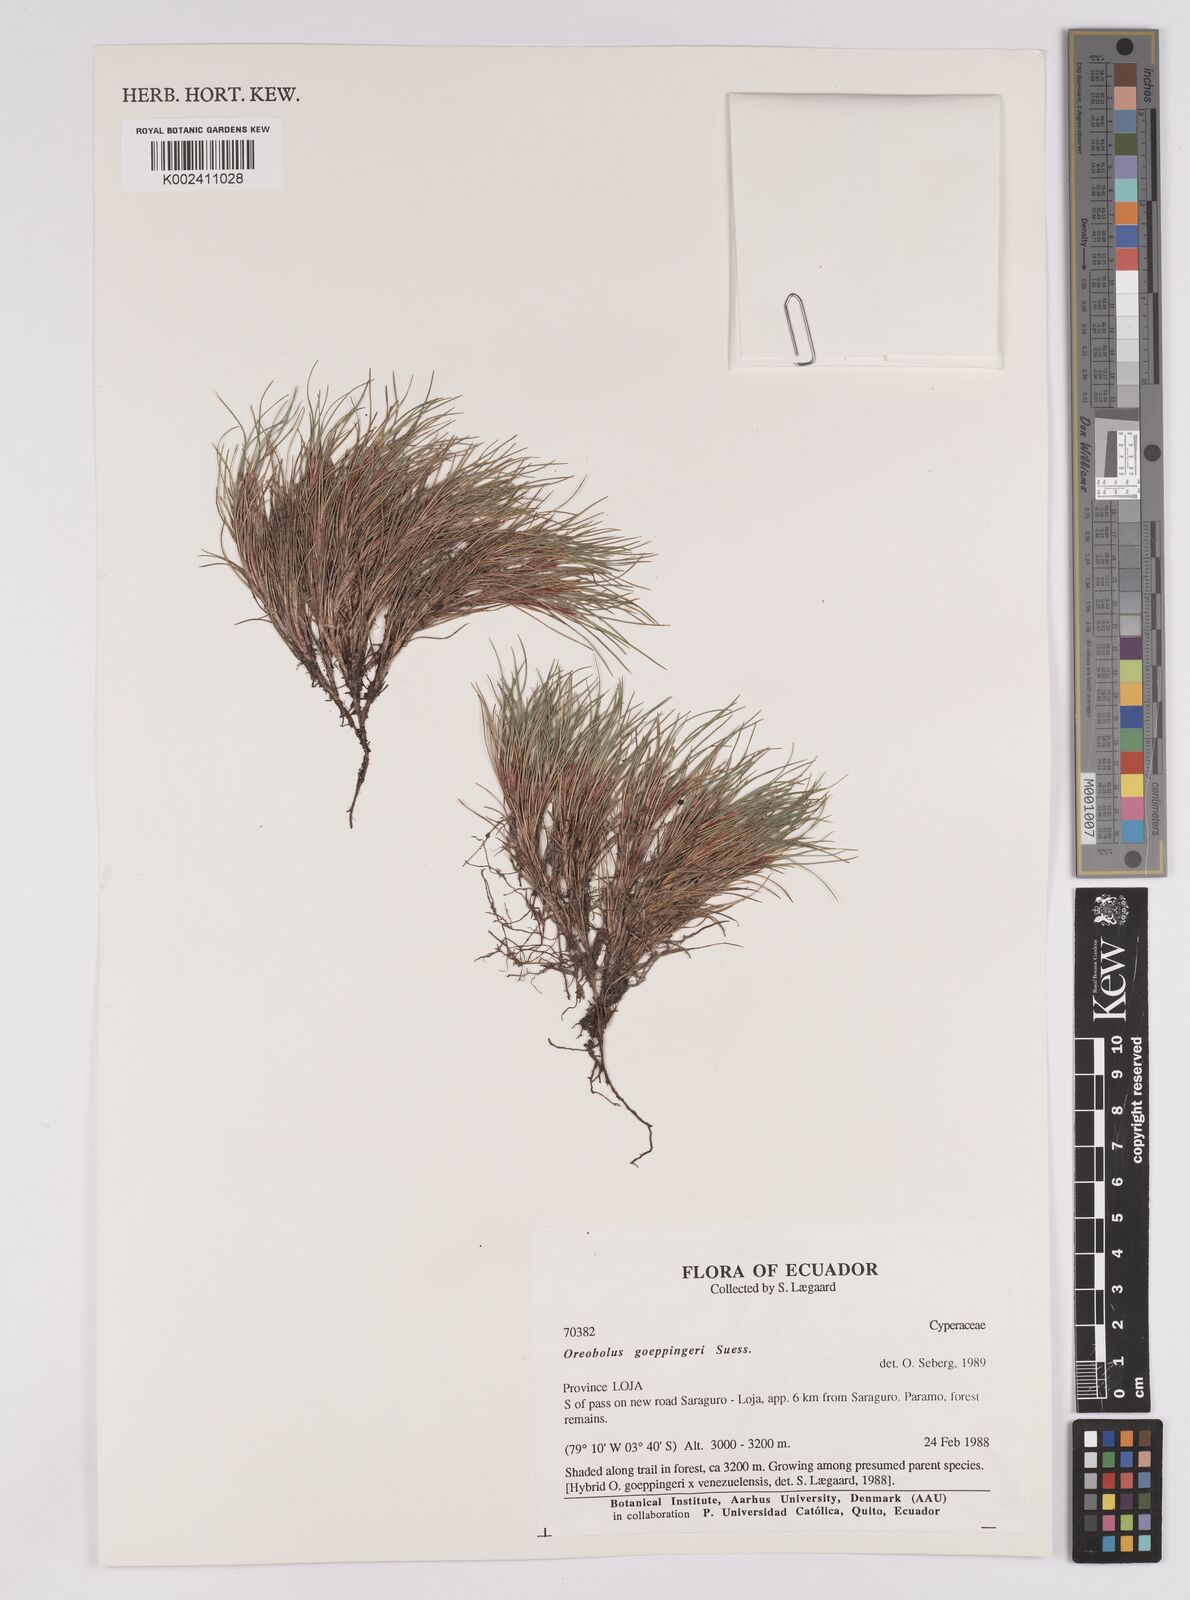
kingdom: Plantae
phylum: Tracheophyta
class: Liliopsida
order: Poales
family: Cyperaceae
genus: Oreobolus
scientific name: Oreobolus goeppingeri
